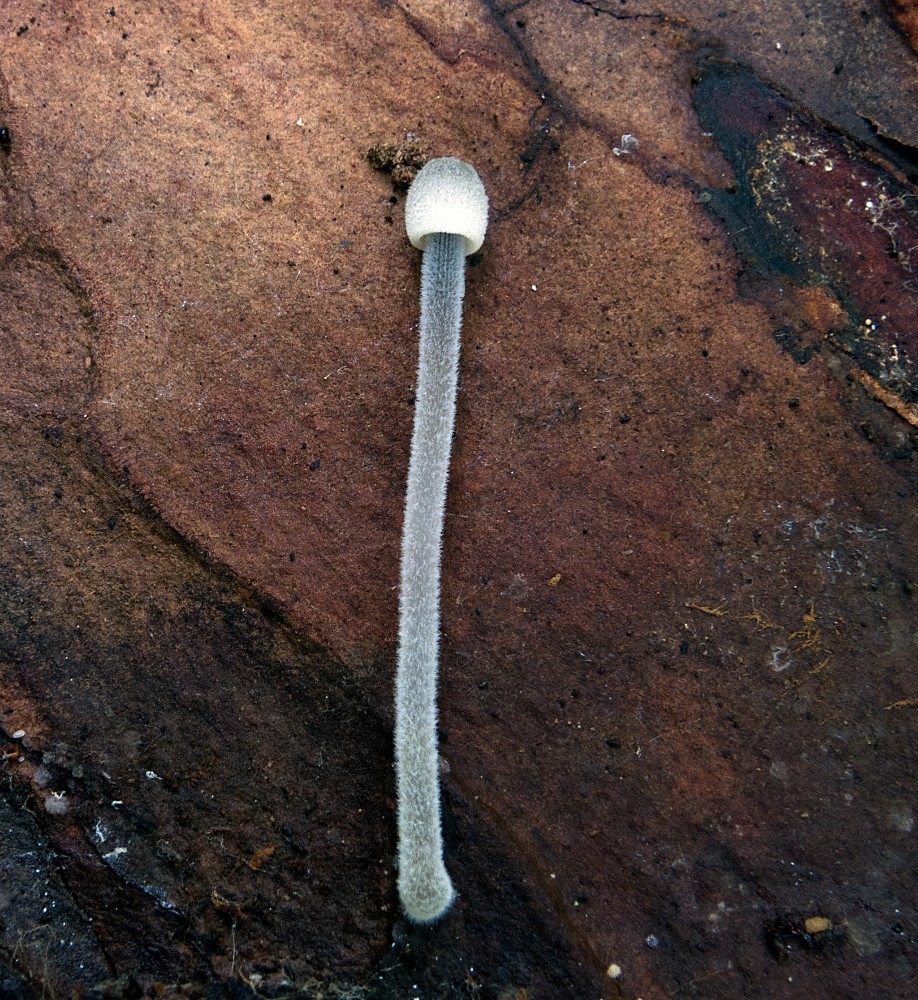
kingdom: Fungi
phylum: Basidiomycota
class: Agaricomycetes
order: Agaricales
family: Mycenaceae
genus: Mycena
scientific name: Mycena amicta
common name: iris-huesvamp
